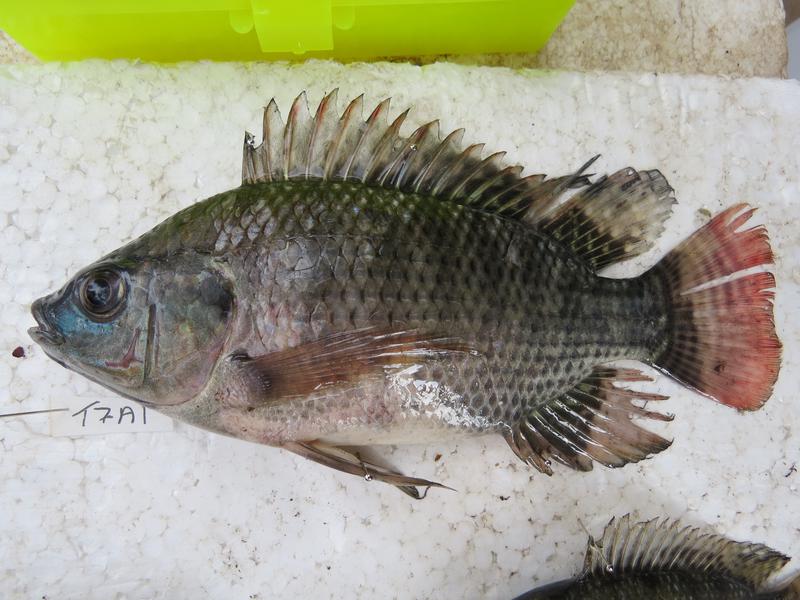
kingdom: Animalia
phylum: Chordata
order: Perciformes
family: Cichlidae
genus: Oreochromis
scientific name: Oreochromis niloticus
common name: Nile tilapia
